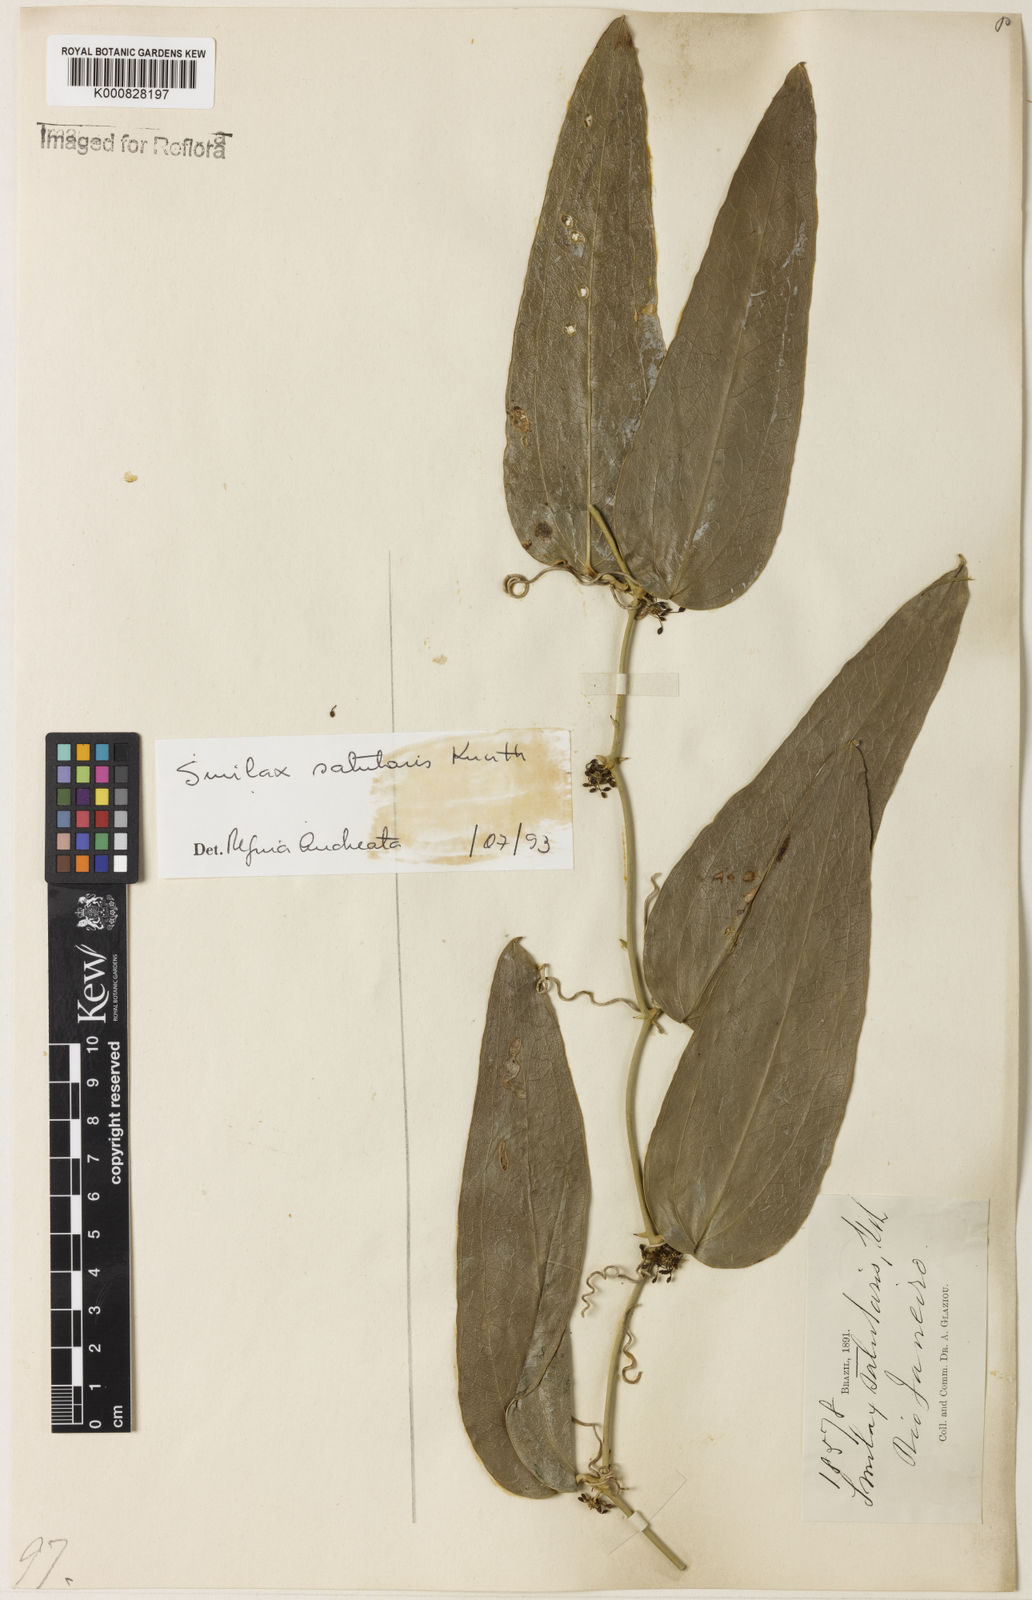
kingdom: Plantae
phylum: Tracheophyta
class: Liliopsida
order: Liliales
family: Smilacaceae
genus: Smilax
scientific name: Smilax subsessiliflora
